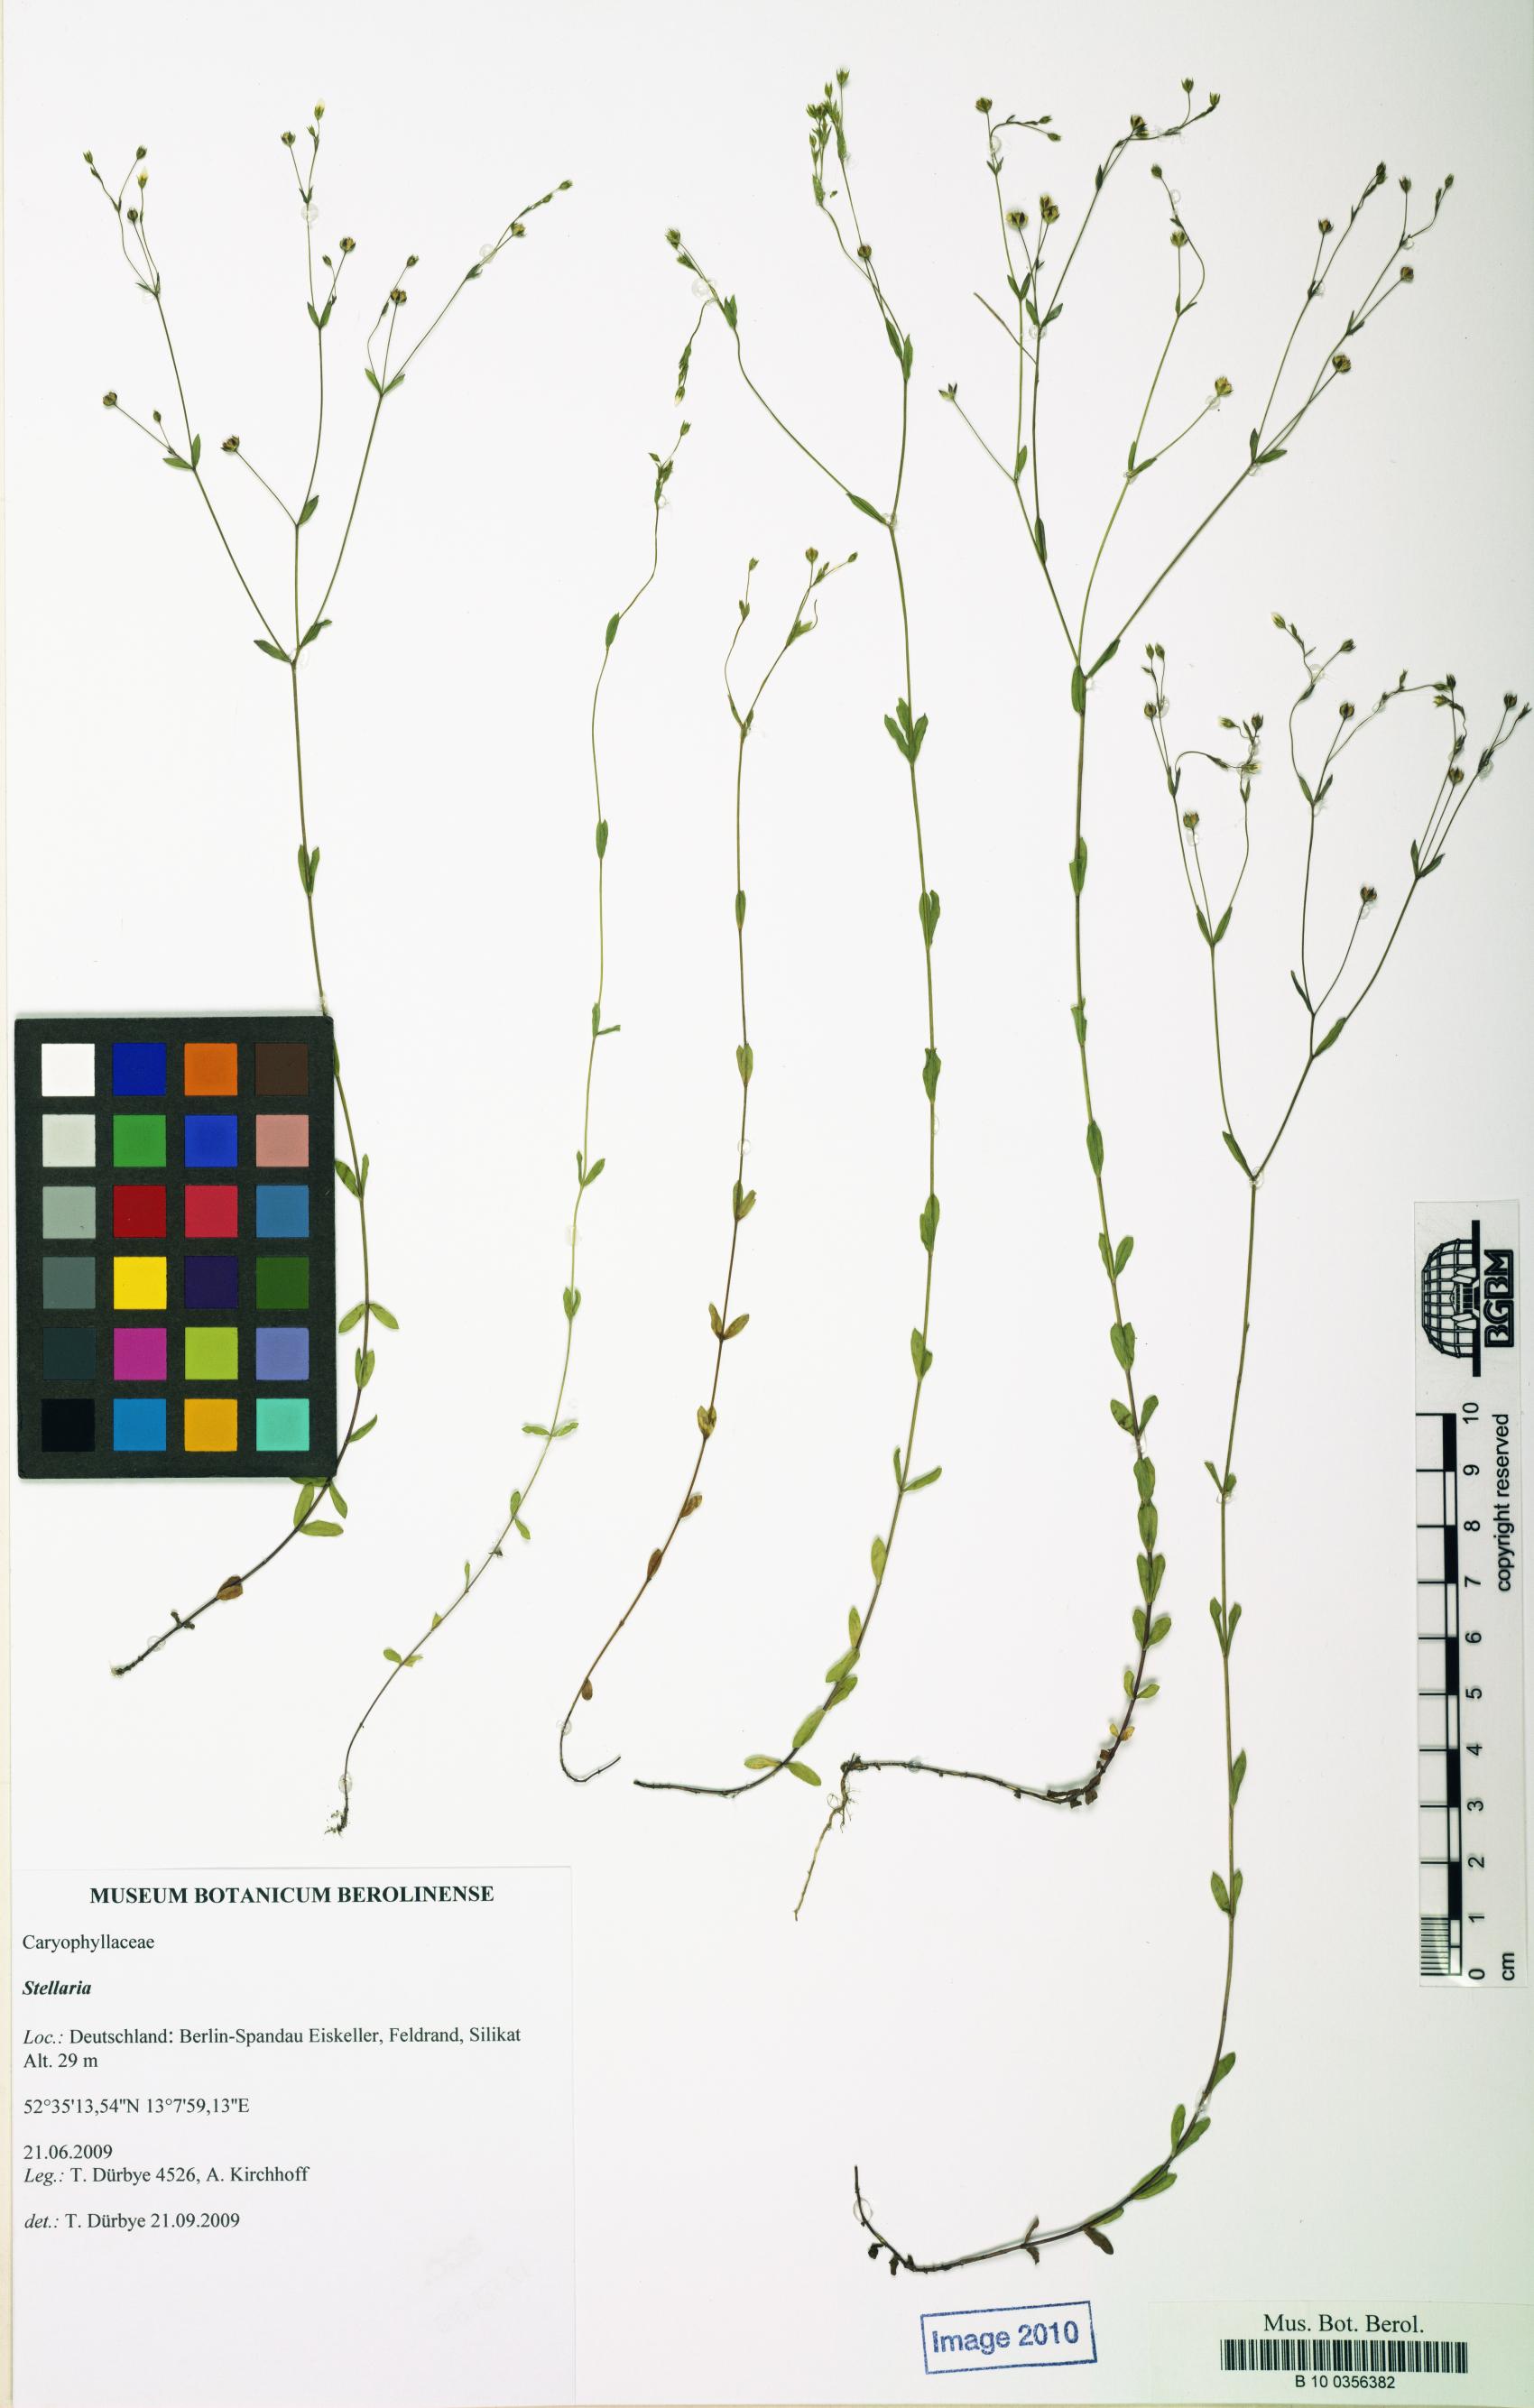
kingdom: Plantae
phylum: Tracheophyta
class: Magnoliopsida
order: Malpighiales
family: Linaceae
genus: Linum
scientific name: Linum catharticum
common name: Fairy flax
